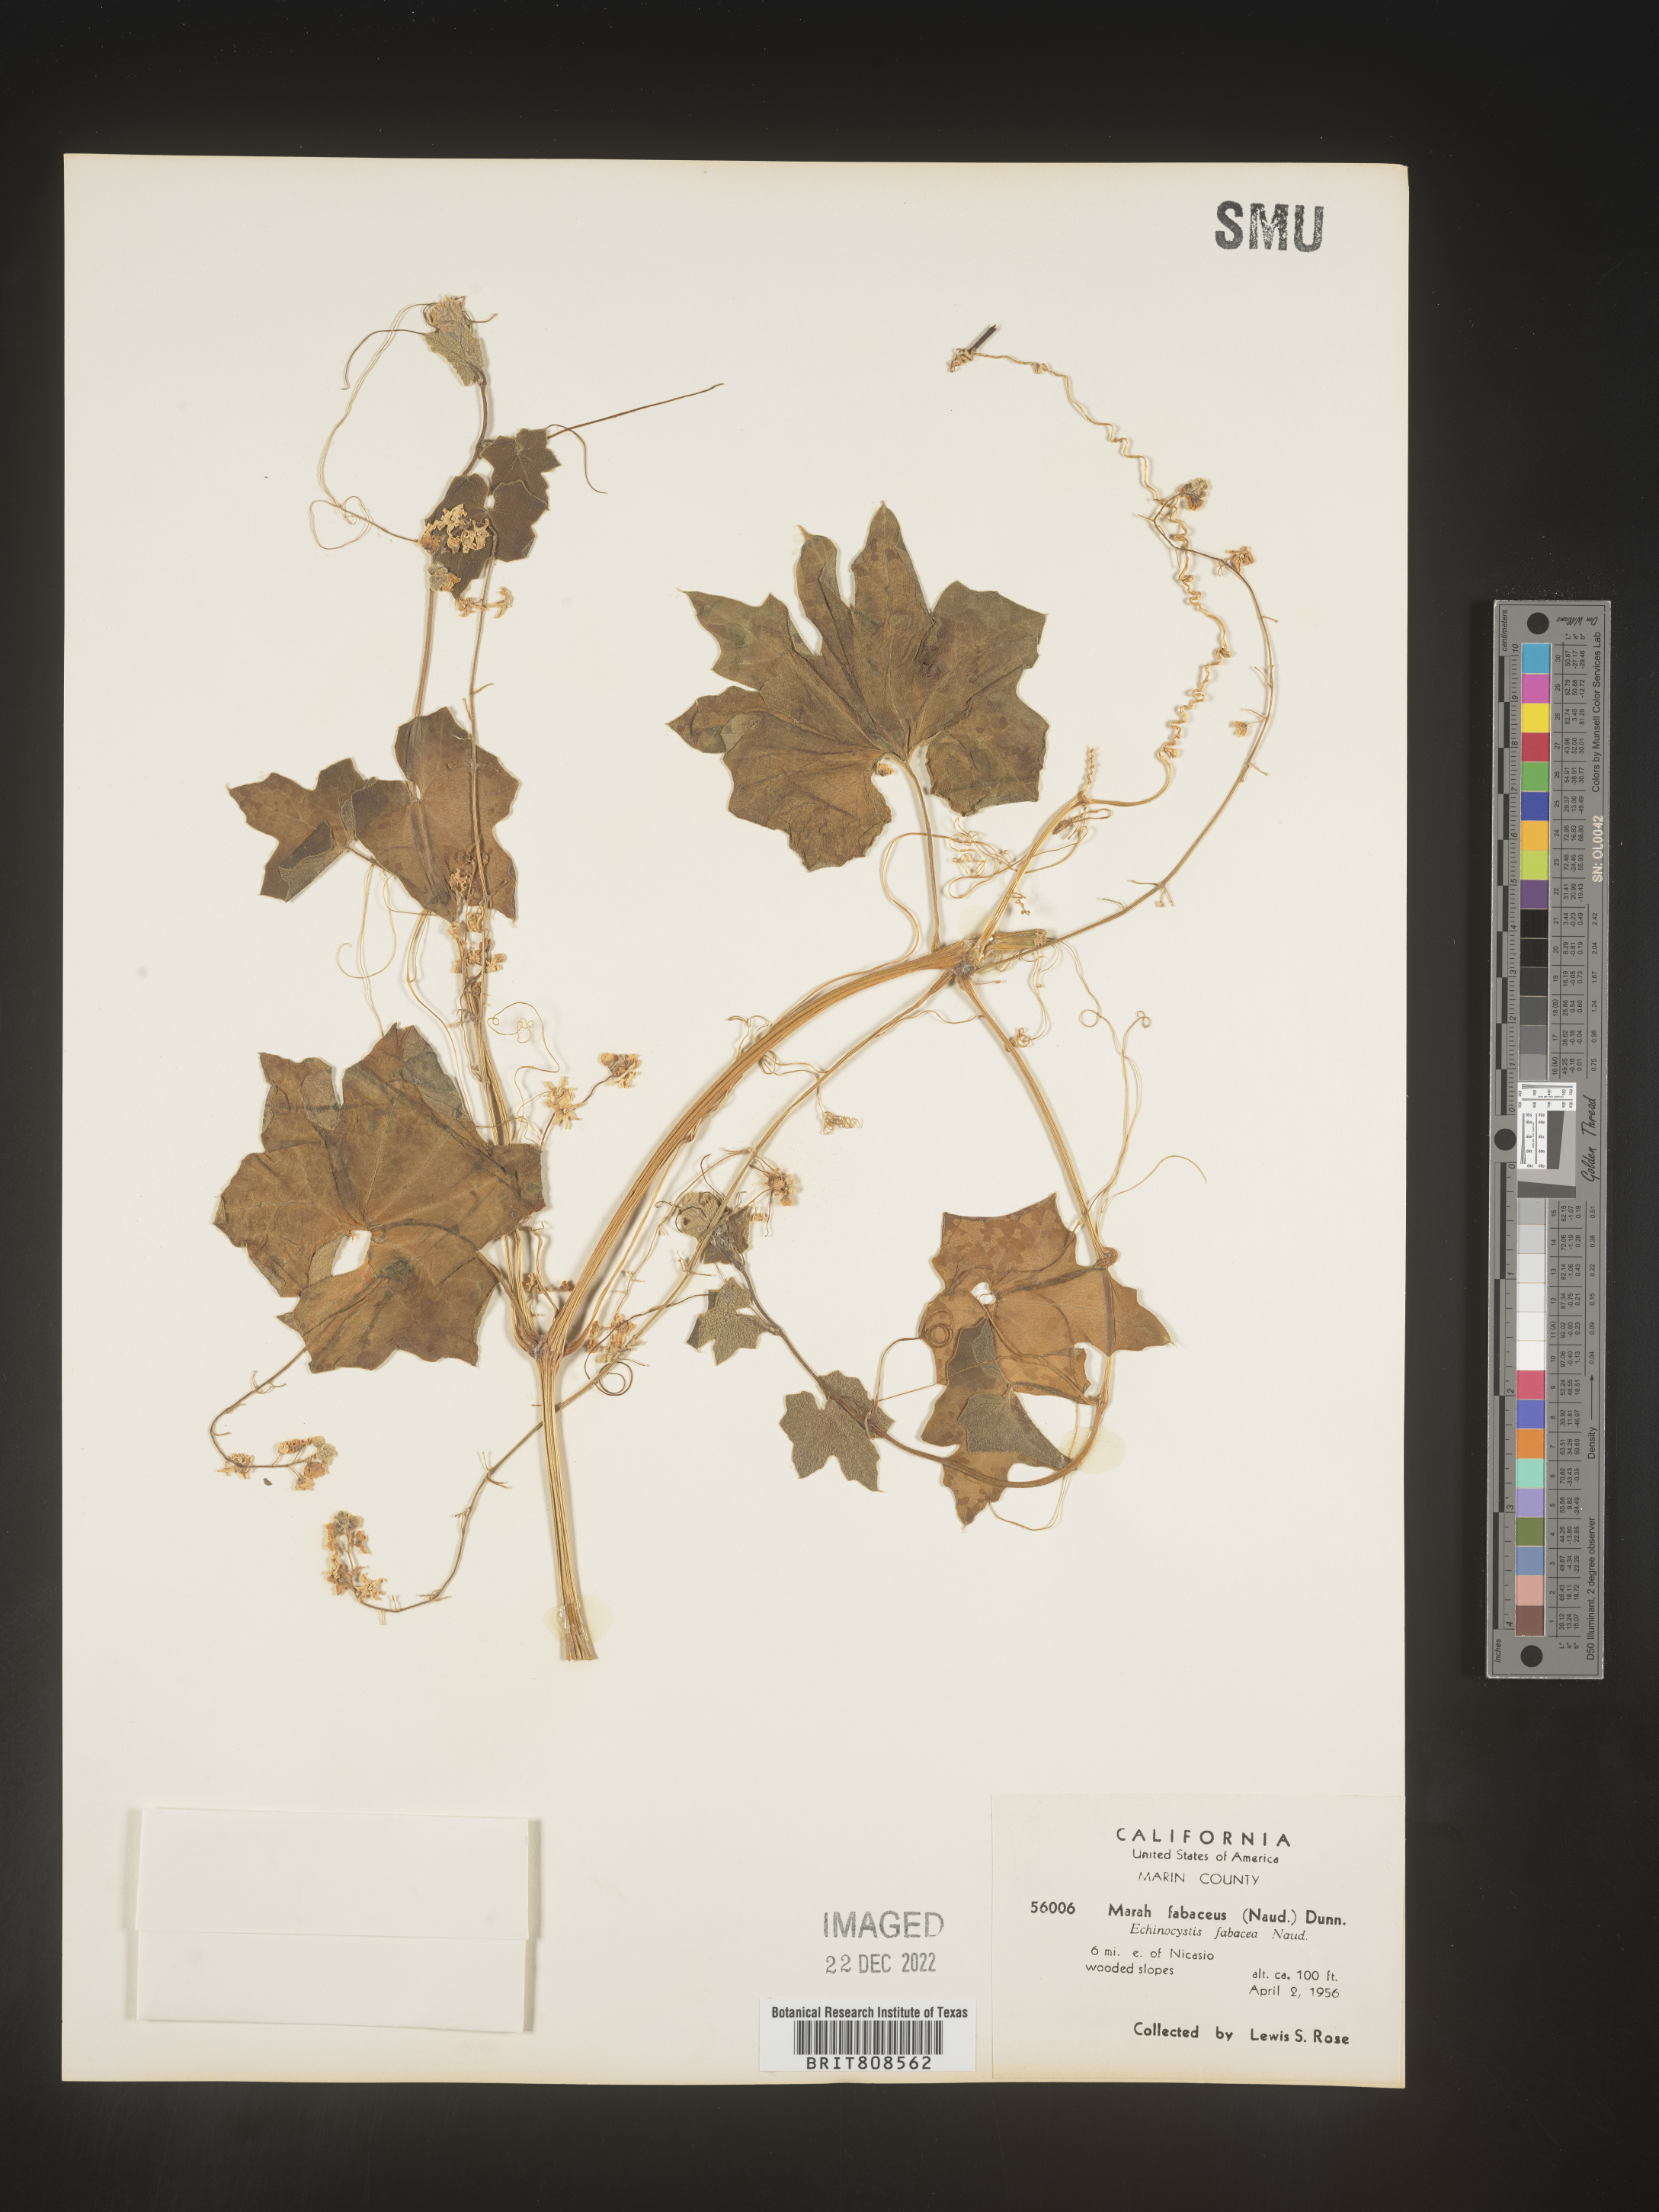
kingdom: Plantae
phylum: Tracheophyta
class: Magnoliopsida
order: Cucurbitales
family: Cucurbitaceae
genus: Marah
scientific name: Marah
